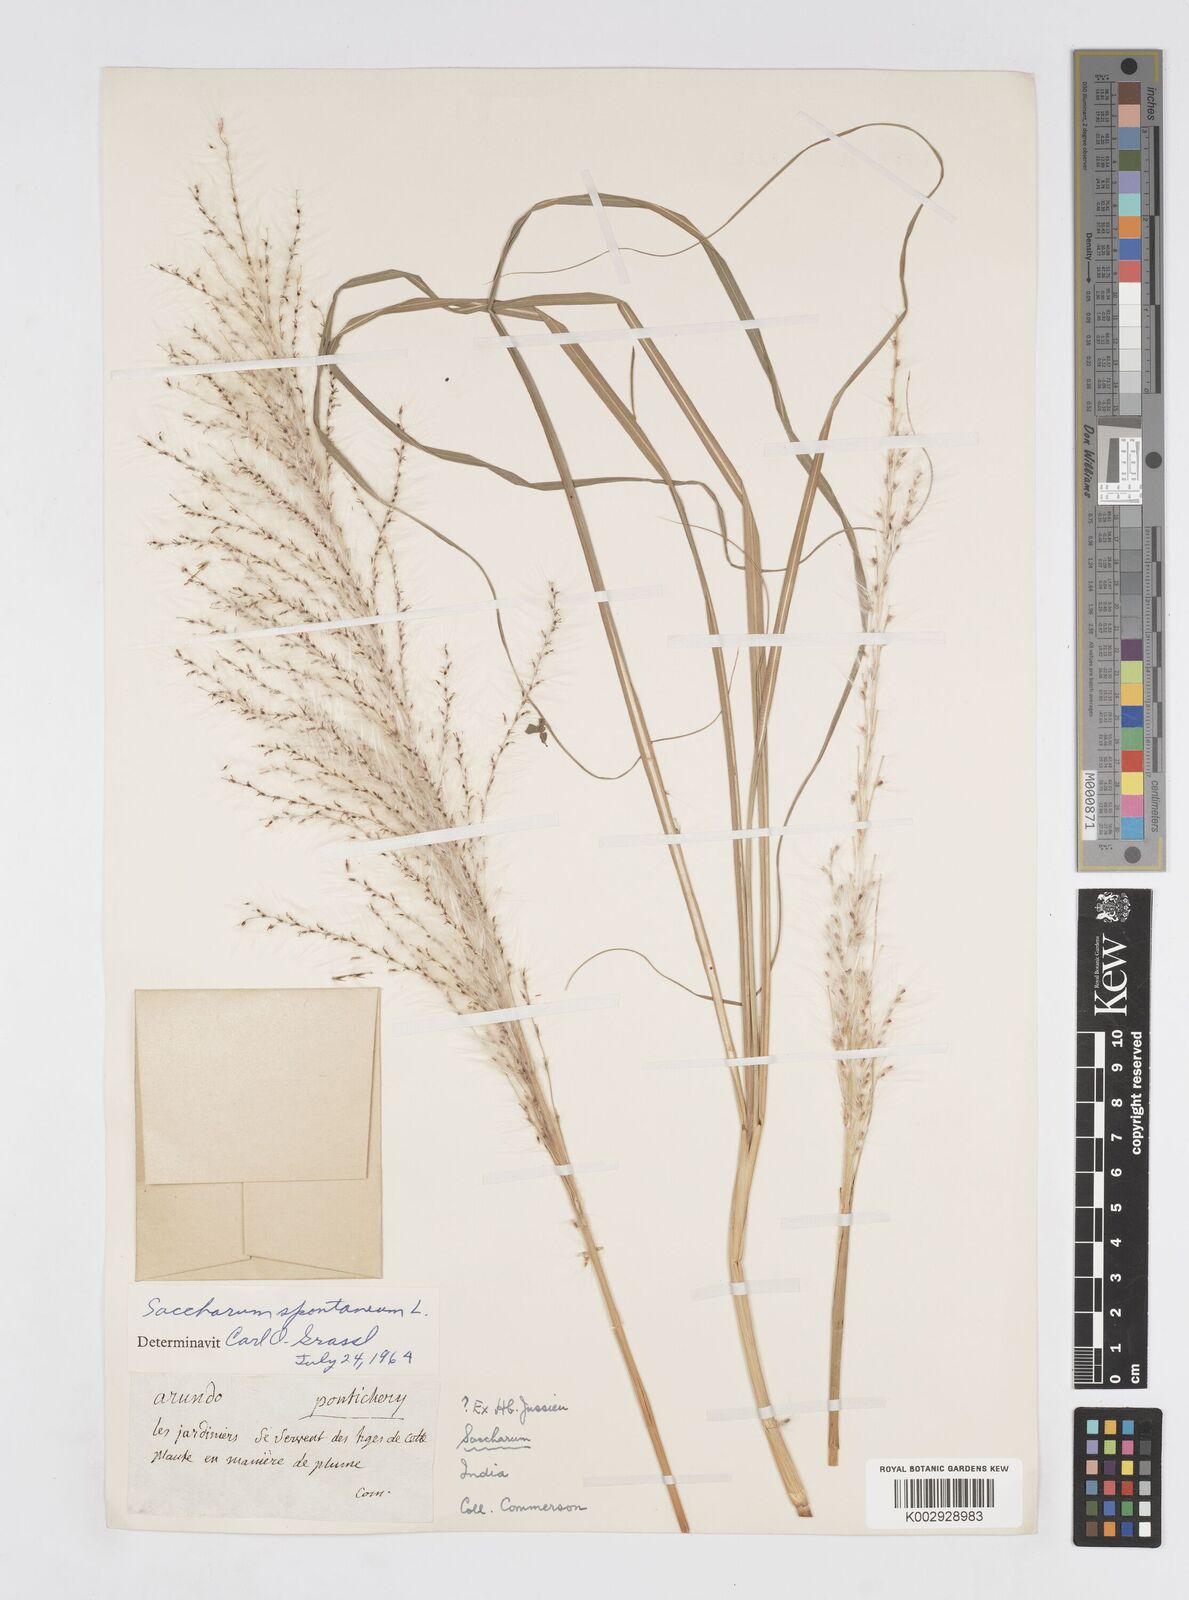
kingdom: Plantae
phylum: Tracheophyta
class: Liliopsida
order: Poales
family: Poaceae
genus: Saccharum
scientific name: Saccharum spontaneum
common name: Wild sugarcane
